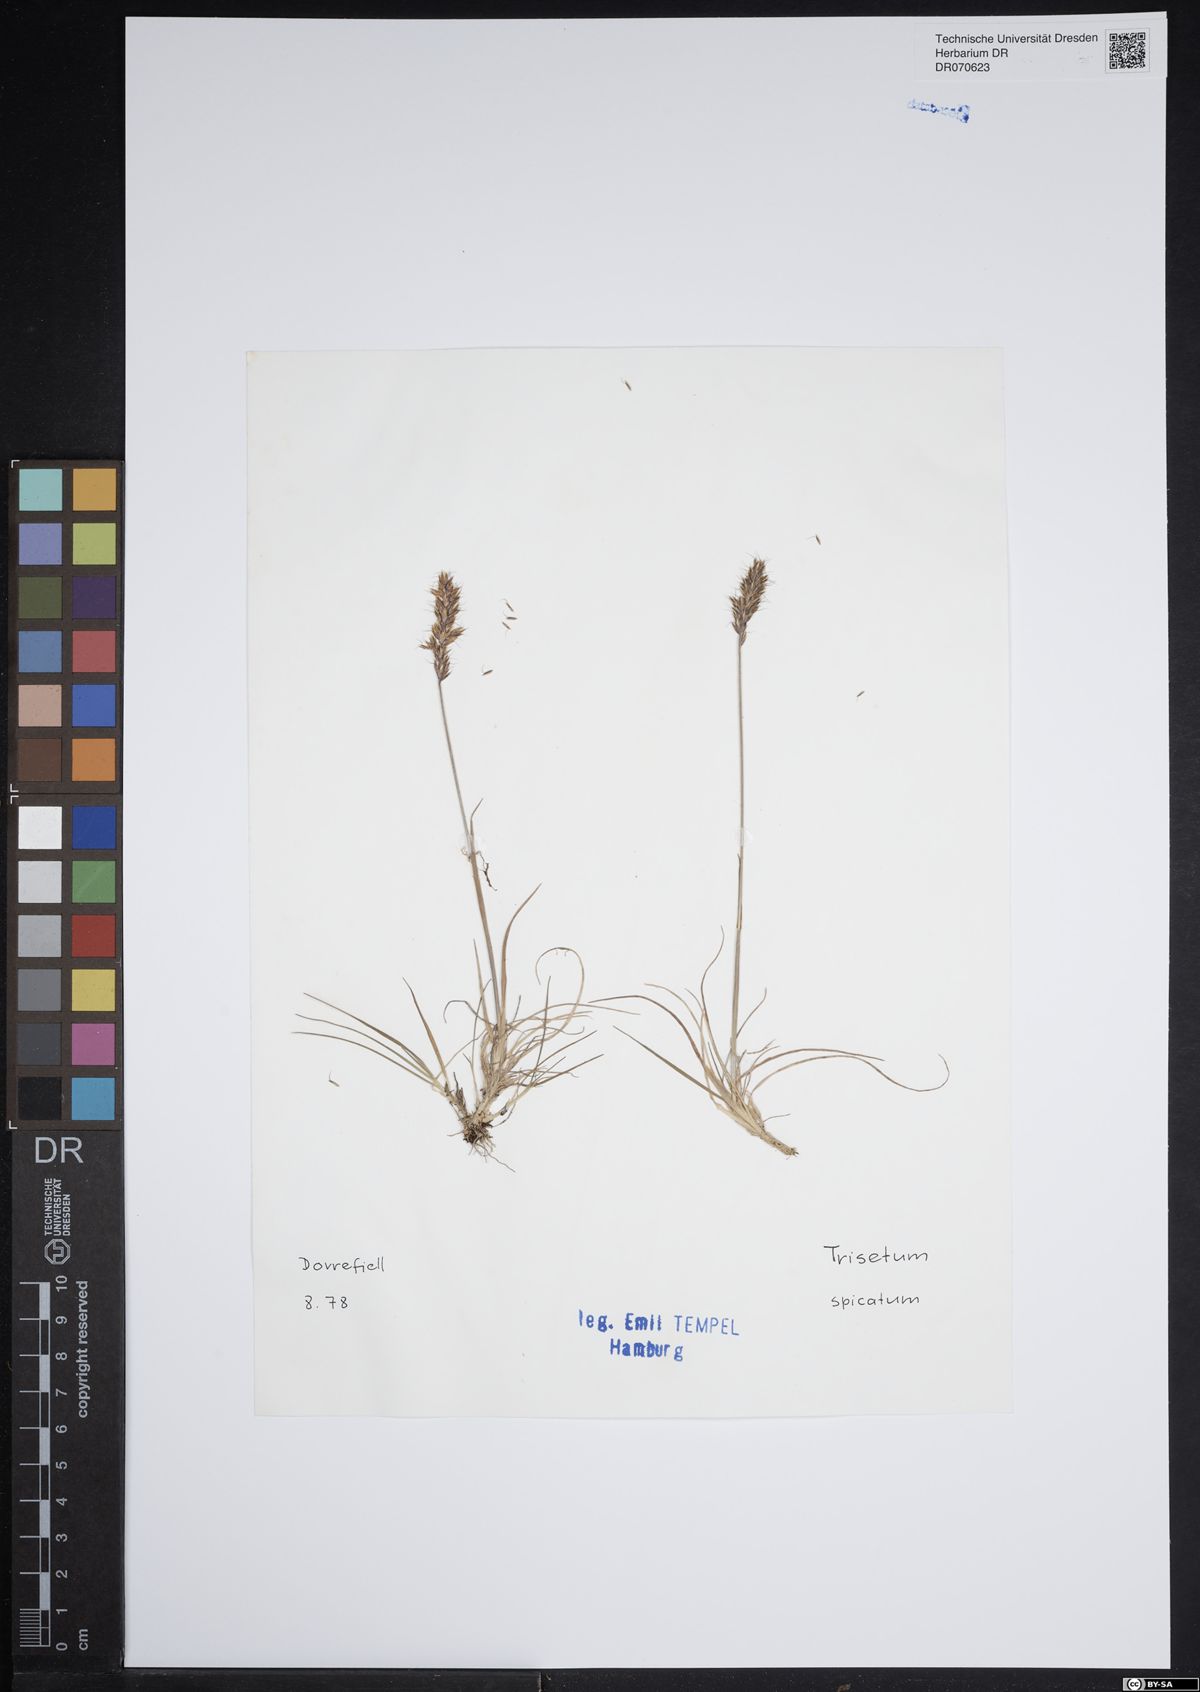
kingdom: Plantae
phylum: Tracheophyta
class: Liliopsida
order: Poales
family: Poaceae
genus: Koeleria
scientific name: Koeleria spicata
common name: Mountain trisetum
